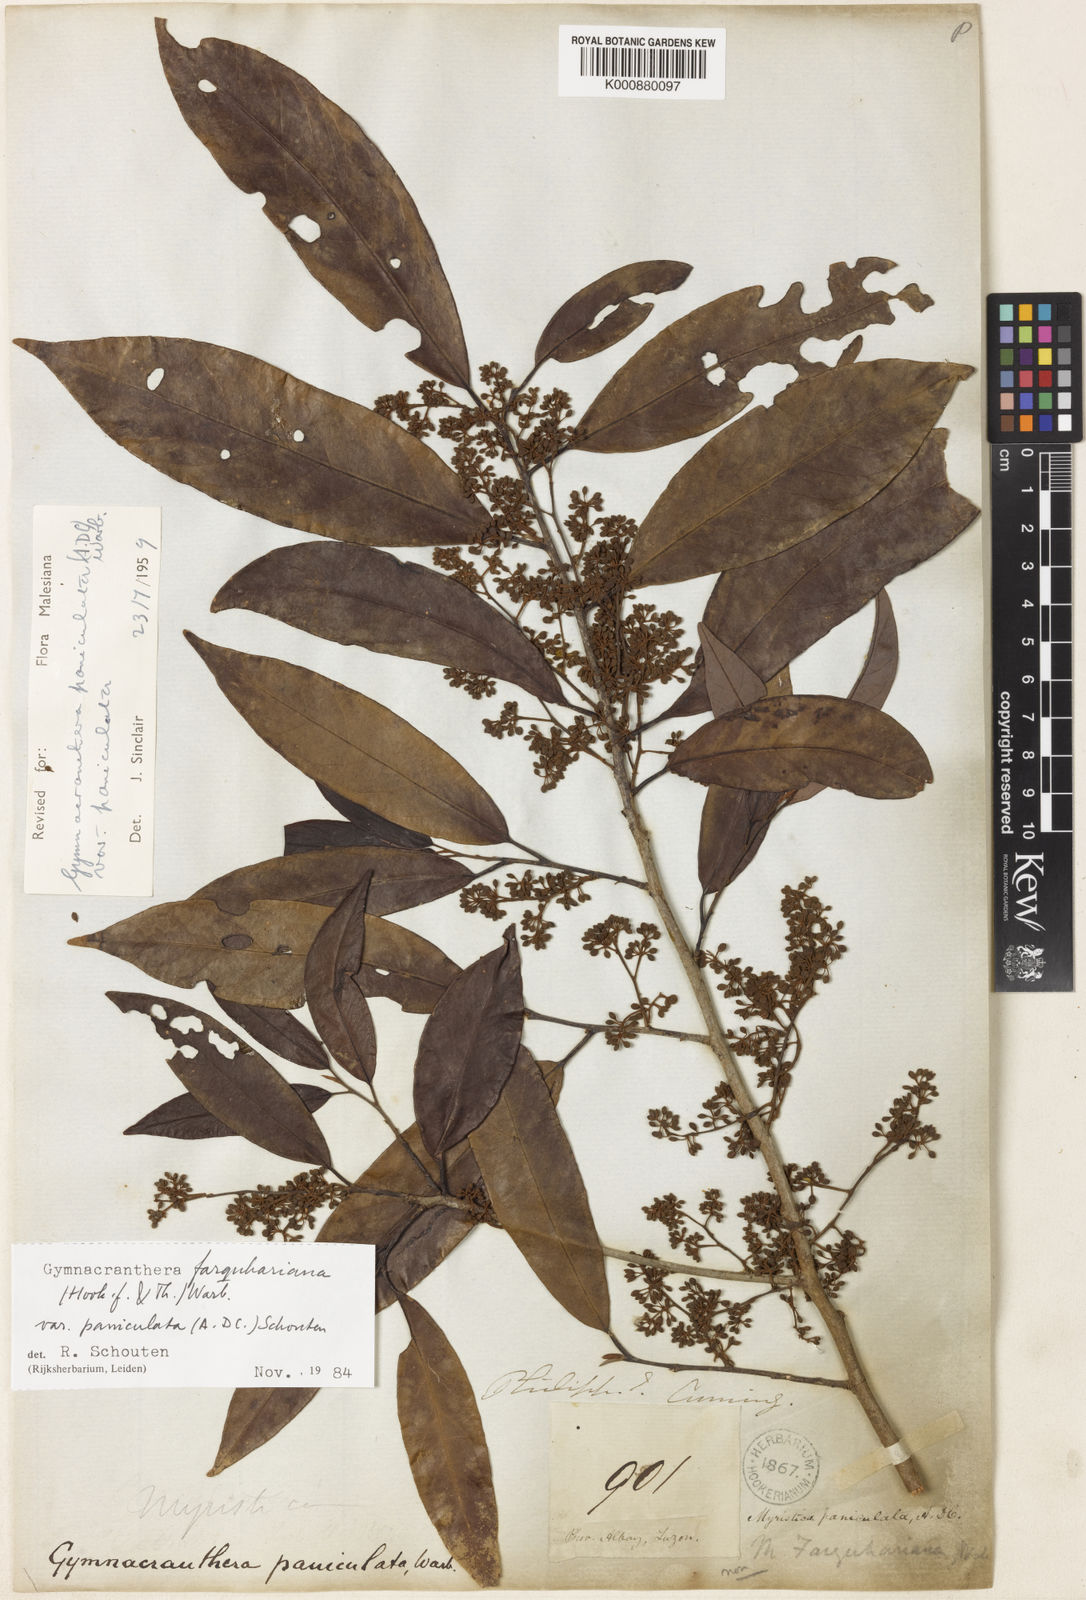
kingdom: Plantae
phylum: Tracheophyta
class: Magnoliopsida
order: Magnoliales
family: Myristicaceae
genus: Gymnacranthera
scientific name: Gymnacranthera farquhariana
